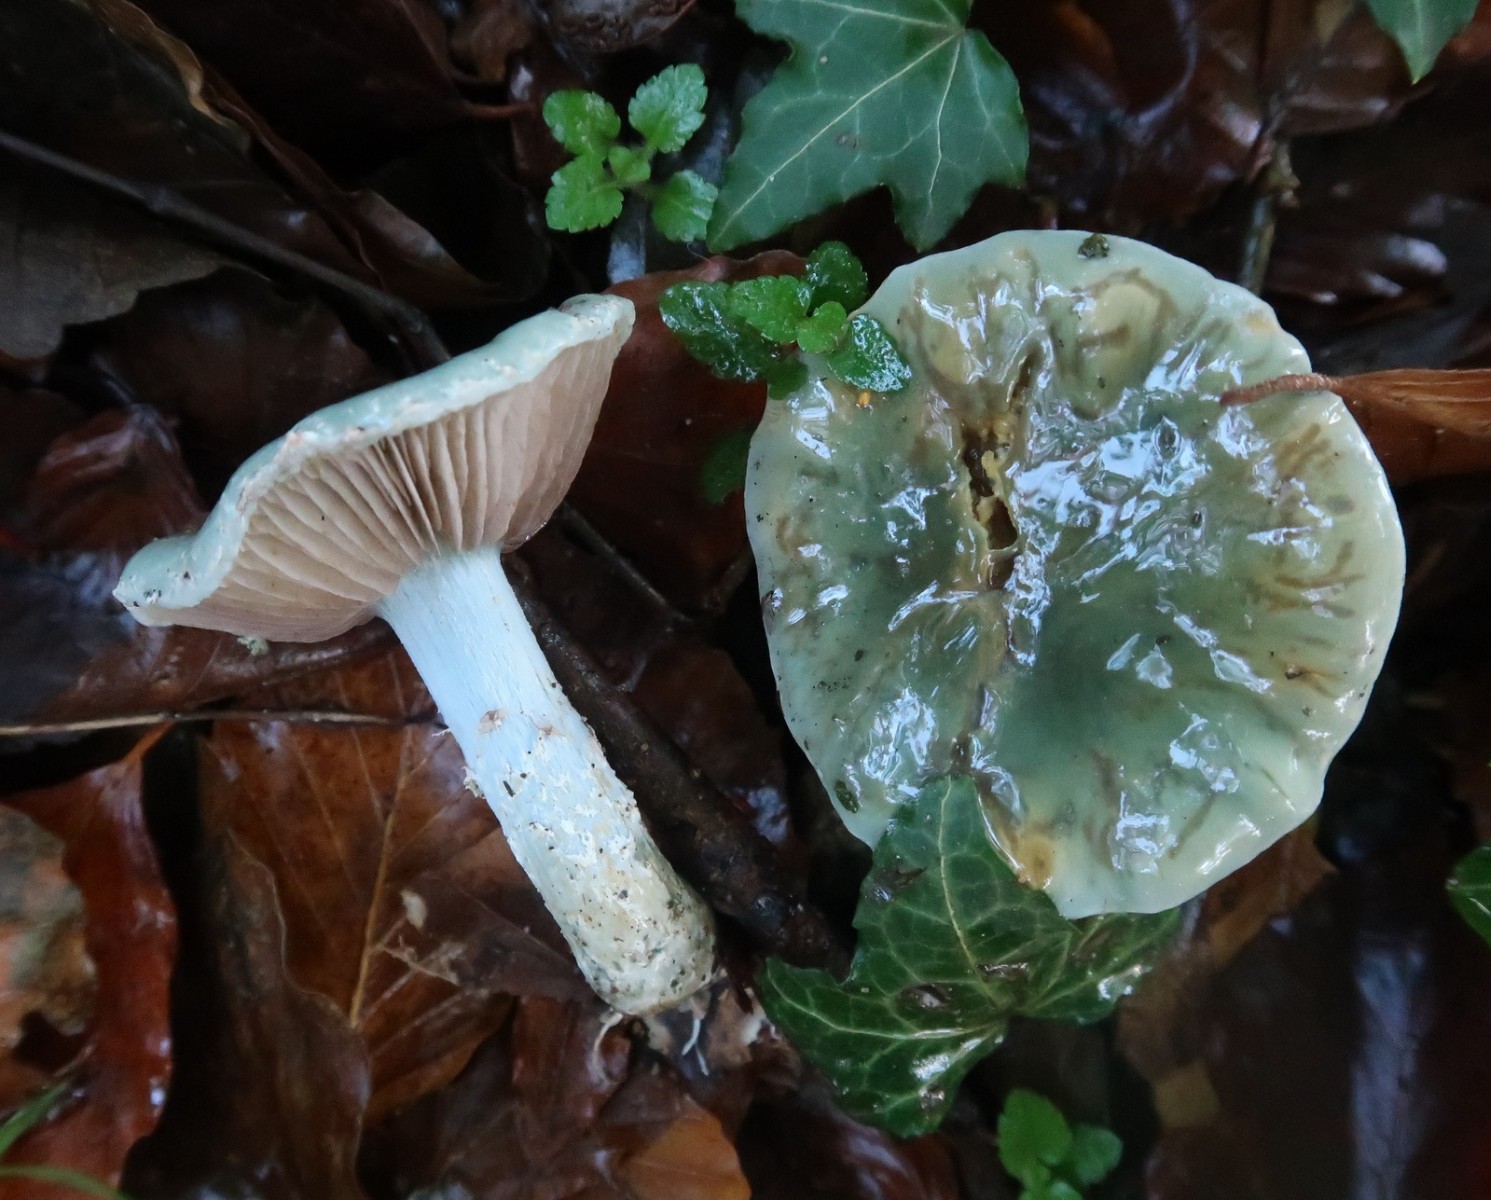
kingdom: Fungi
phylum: Basidiomycota
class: Agaricomycetes
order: Agaricales
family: Strophariaceae
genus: Stropharia
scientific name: Stropharia cyanea
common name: blågrøn bredblad
